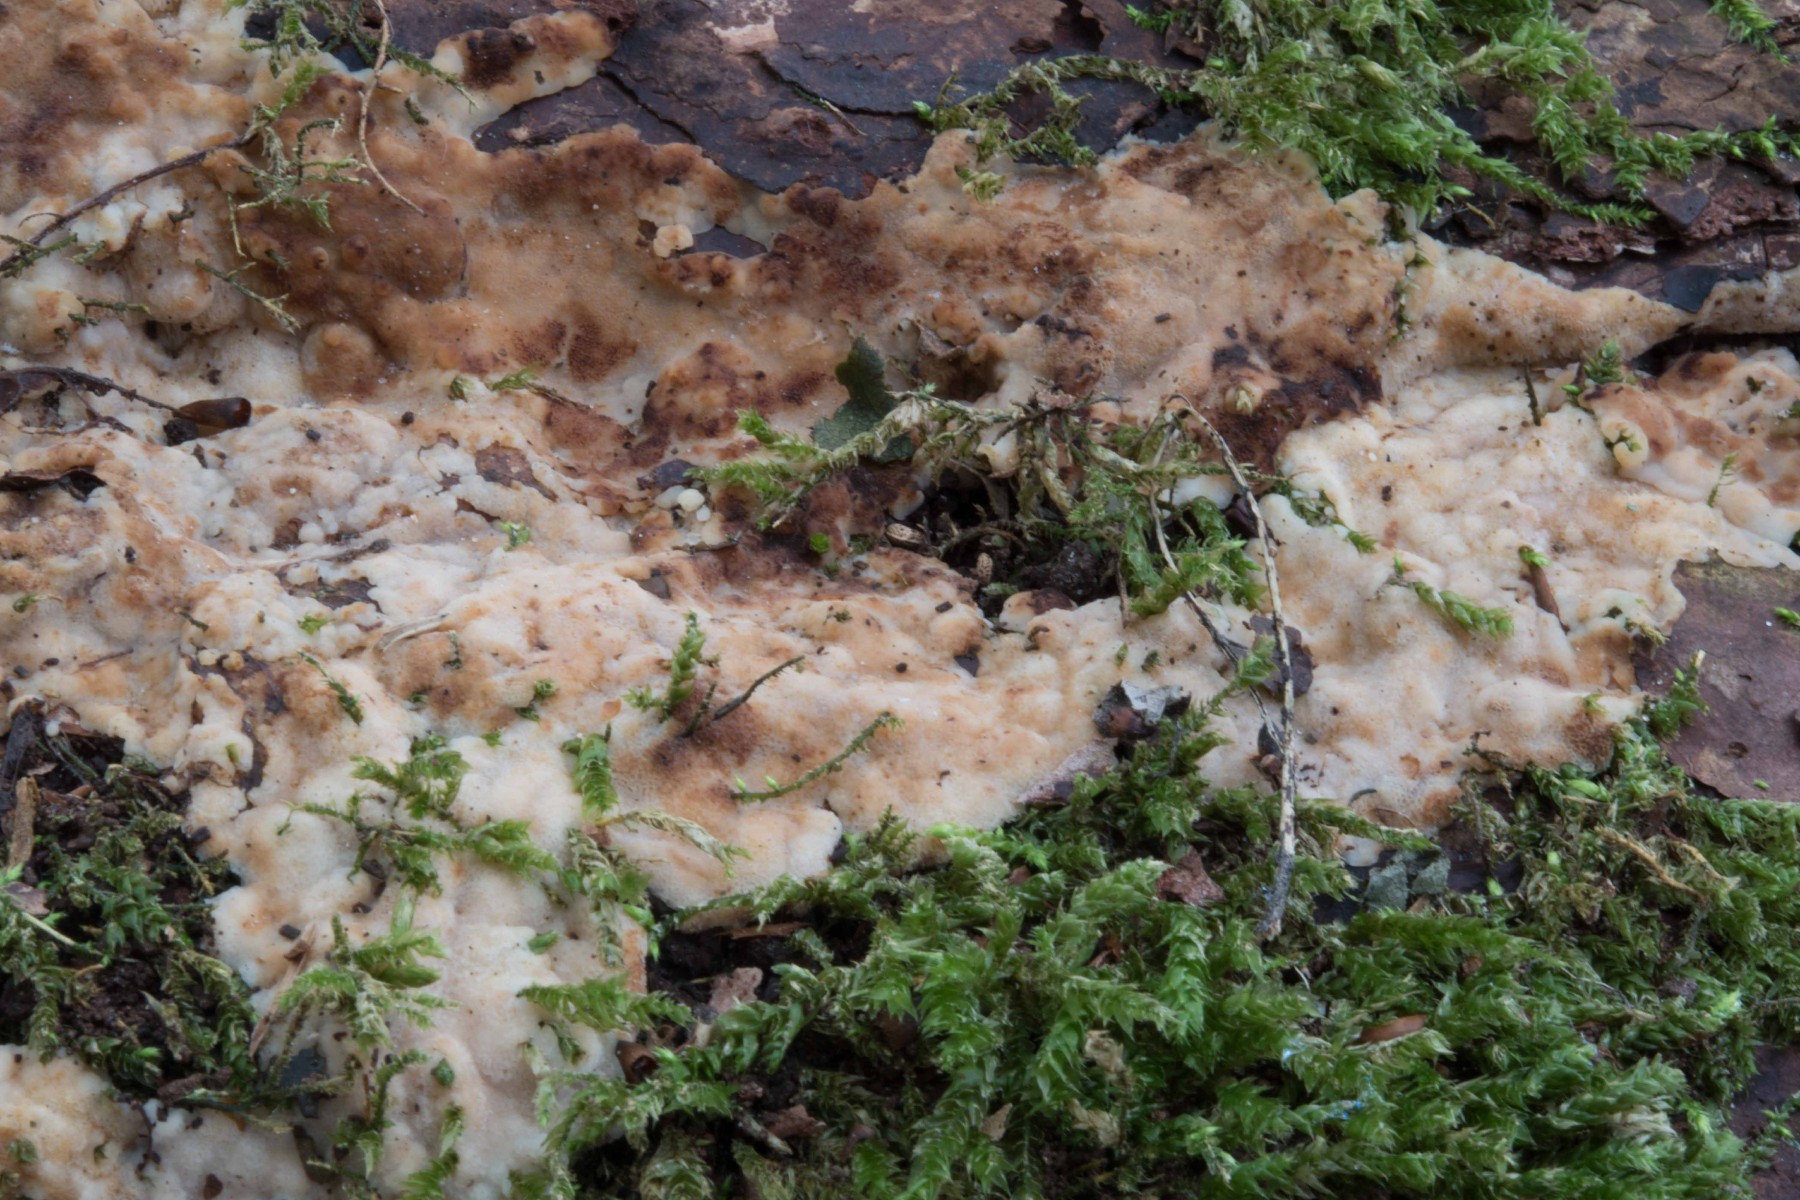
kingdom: Fungi
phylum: Basidiomycota
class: Agaricomycetes
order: Polyporales
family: Meruliaceae
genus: Physisporinus
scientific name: Physisporinus vitreus
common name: mastesvamp
